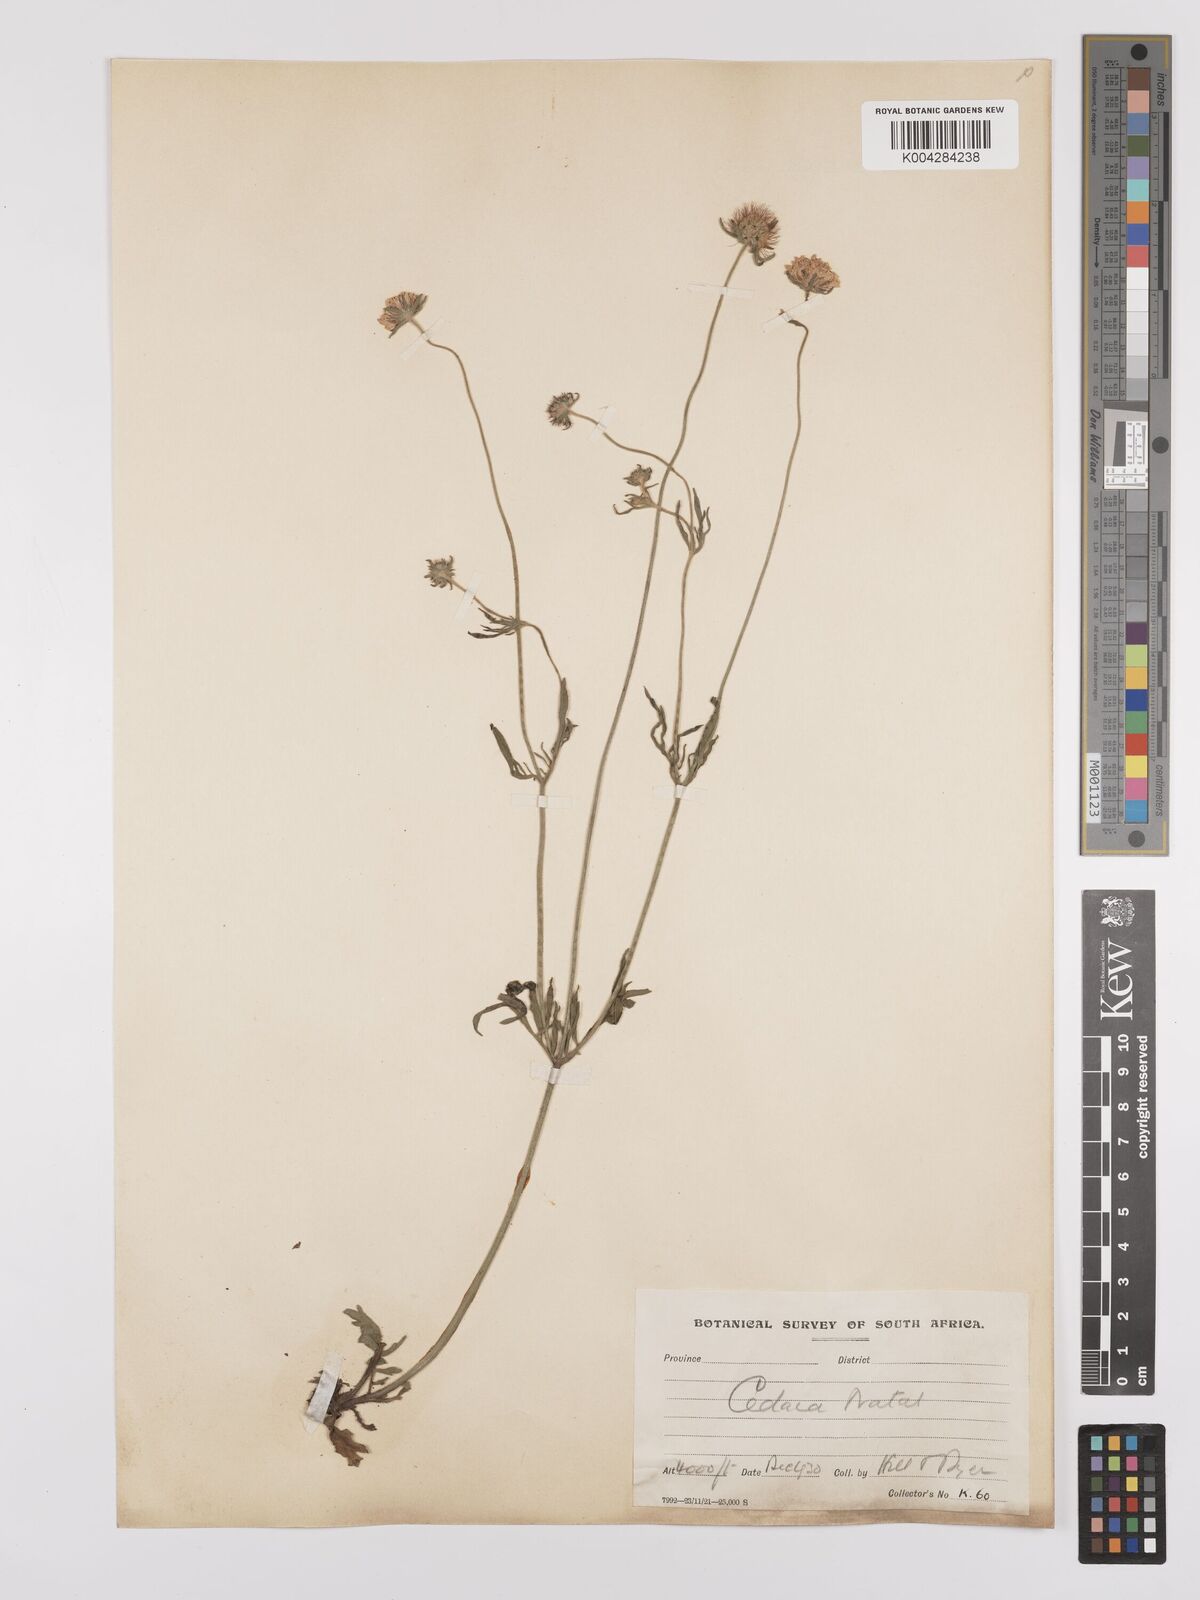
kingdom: Plantae
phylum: Tracheophyta
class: Magnoliopsida
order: Dipsacales
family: Caprifoliaceae
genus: Scabiosa
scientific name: Scabiosa columbaria
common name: Small scabious
